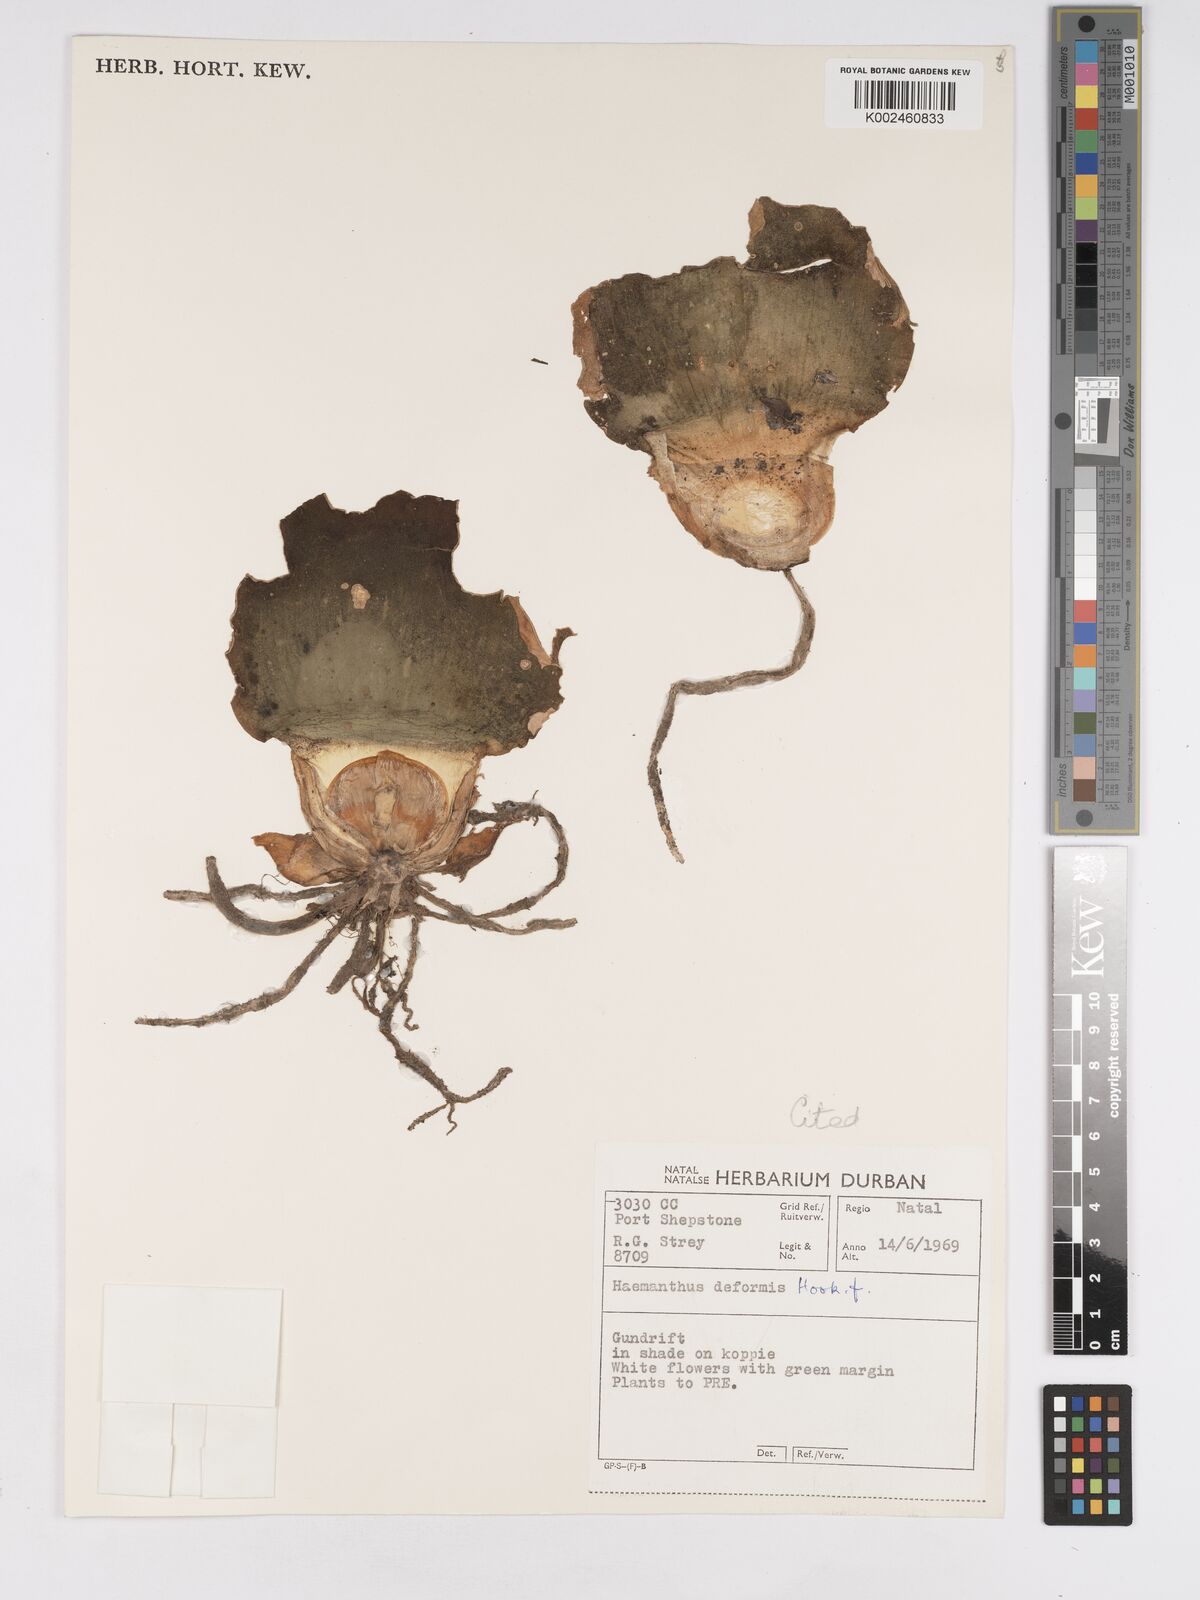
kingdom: Plantae
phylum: Tracheophyta
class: Liliopsida
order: Asparagales
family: Amaryllidaceae
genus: Haemanthus
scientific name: Haemanthus deformis
